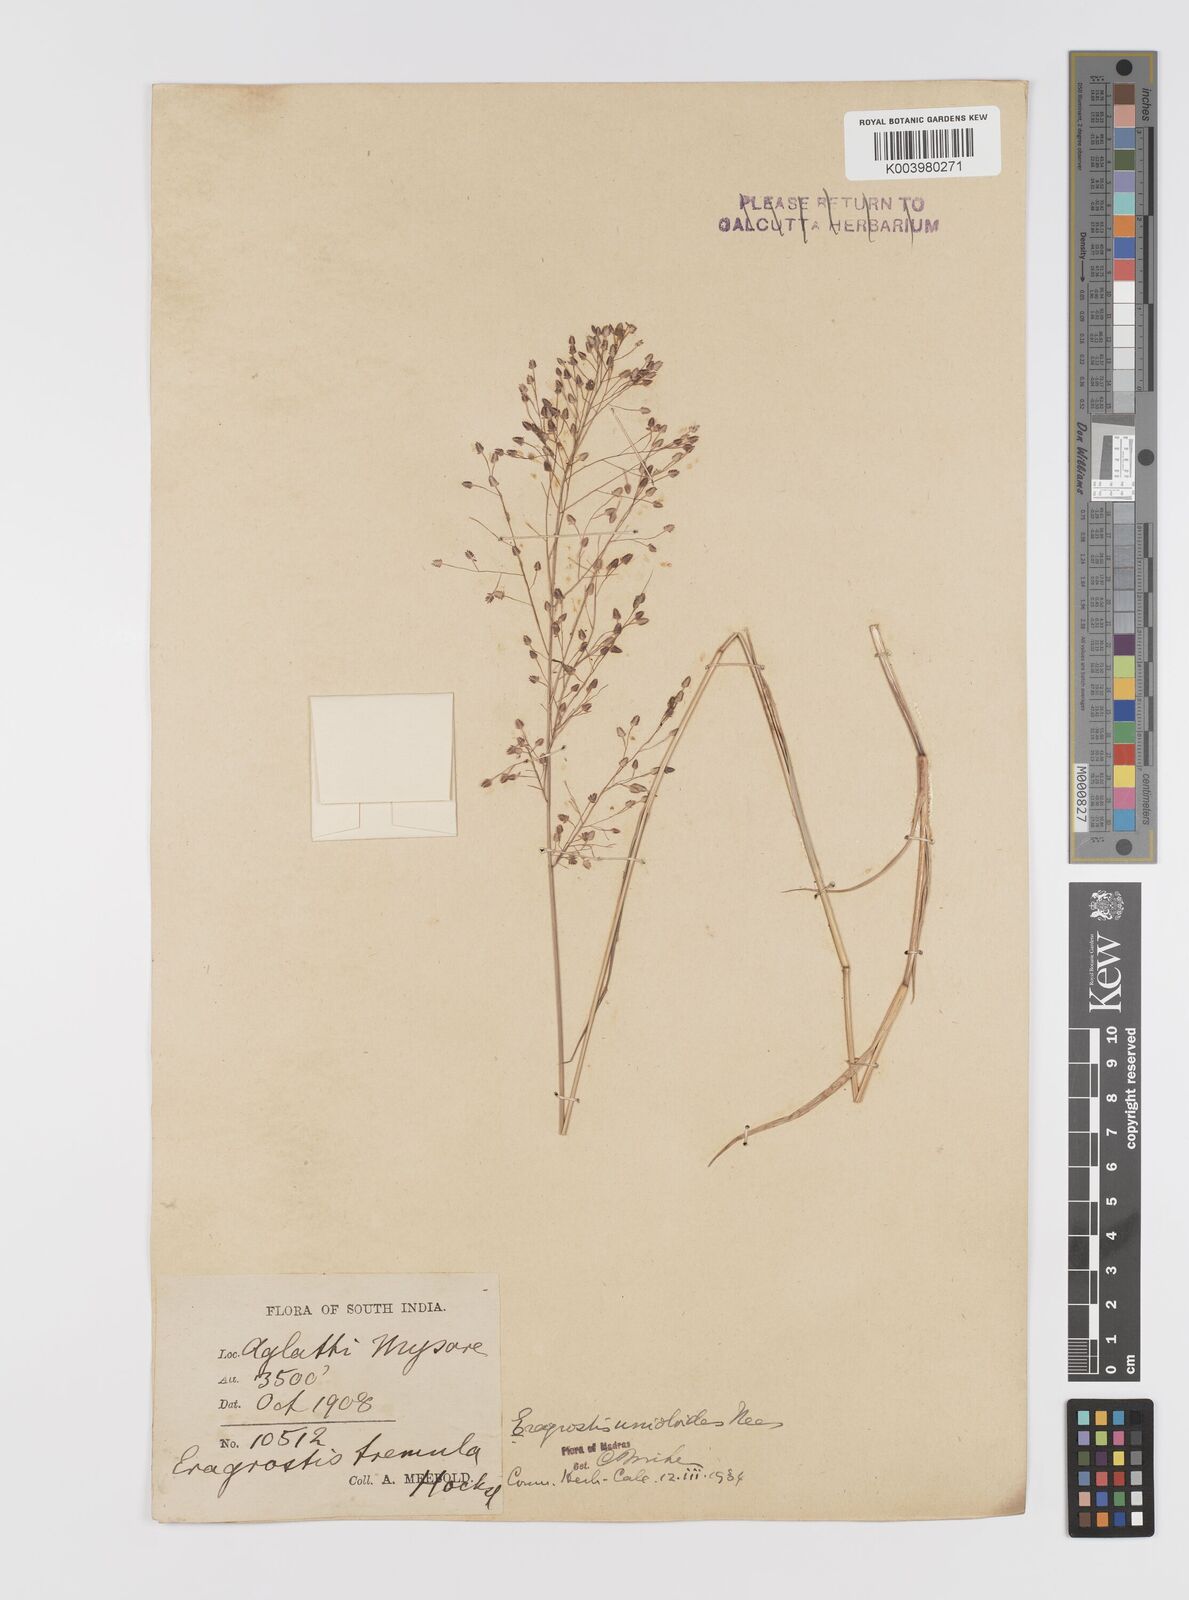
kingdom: Plantae
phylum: Tracheophyta
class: Liliopsida
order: Poales
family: Poaceae
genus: Eragrostis
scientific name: Eragrostis unioloides
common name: Chinese lovegrass
